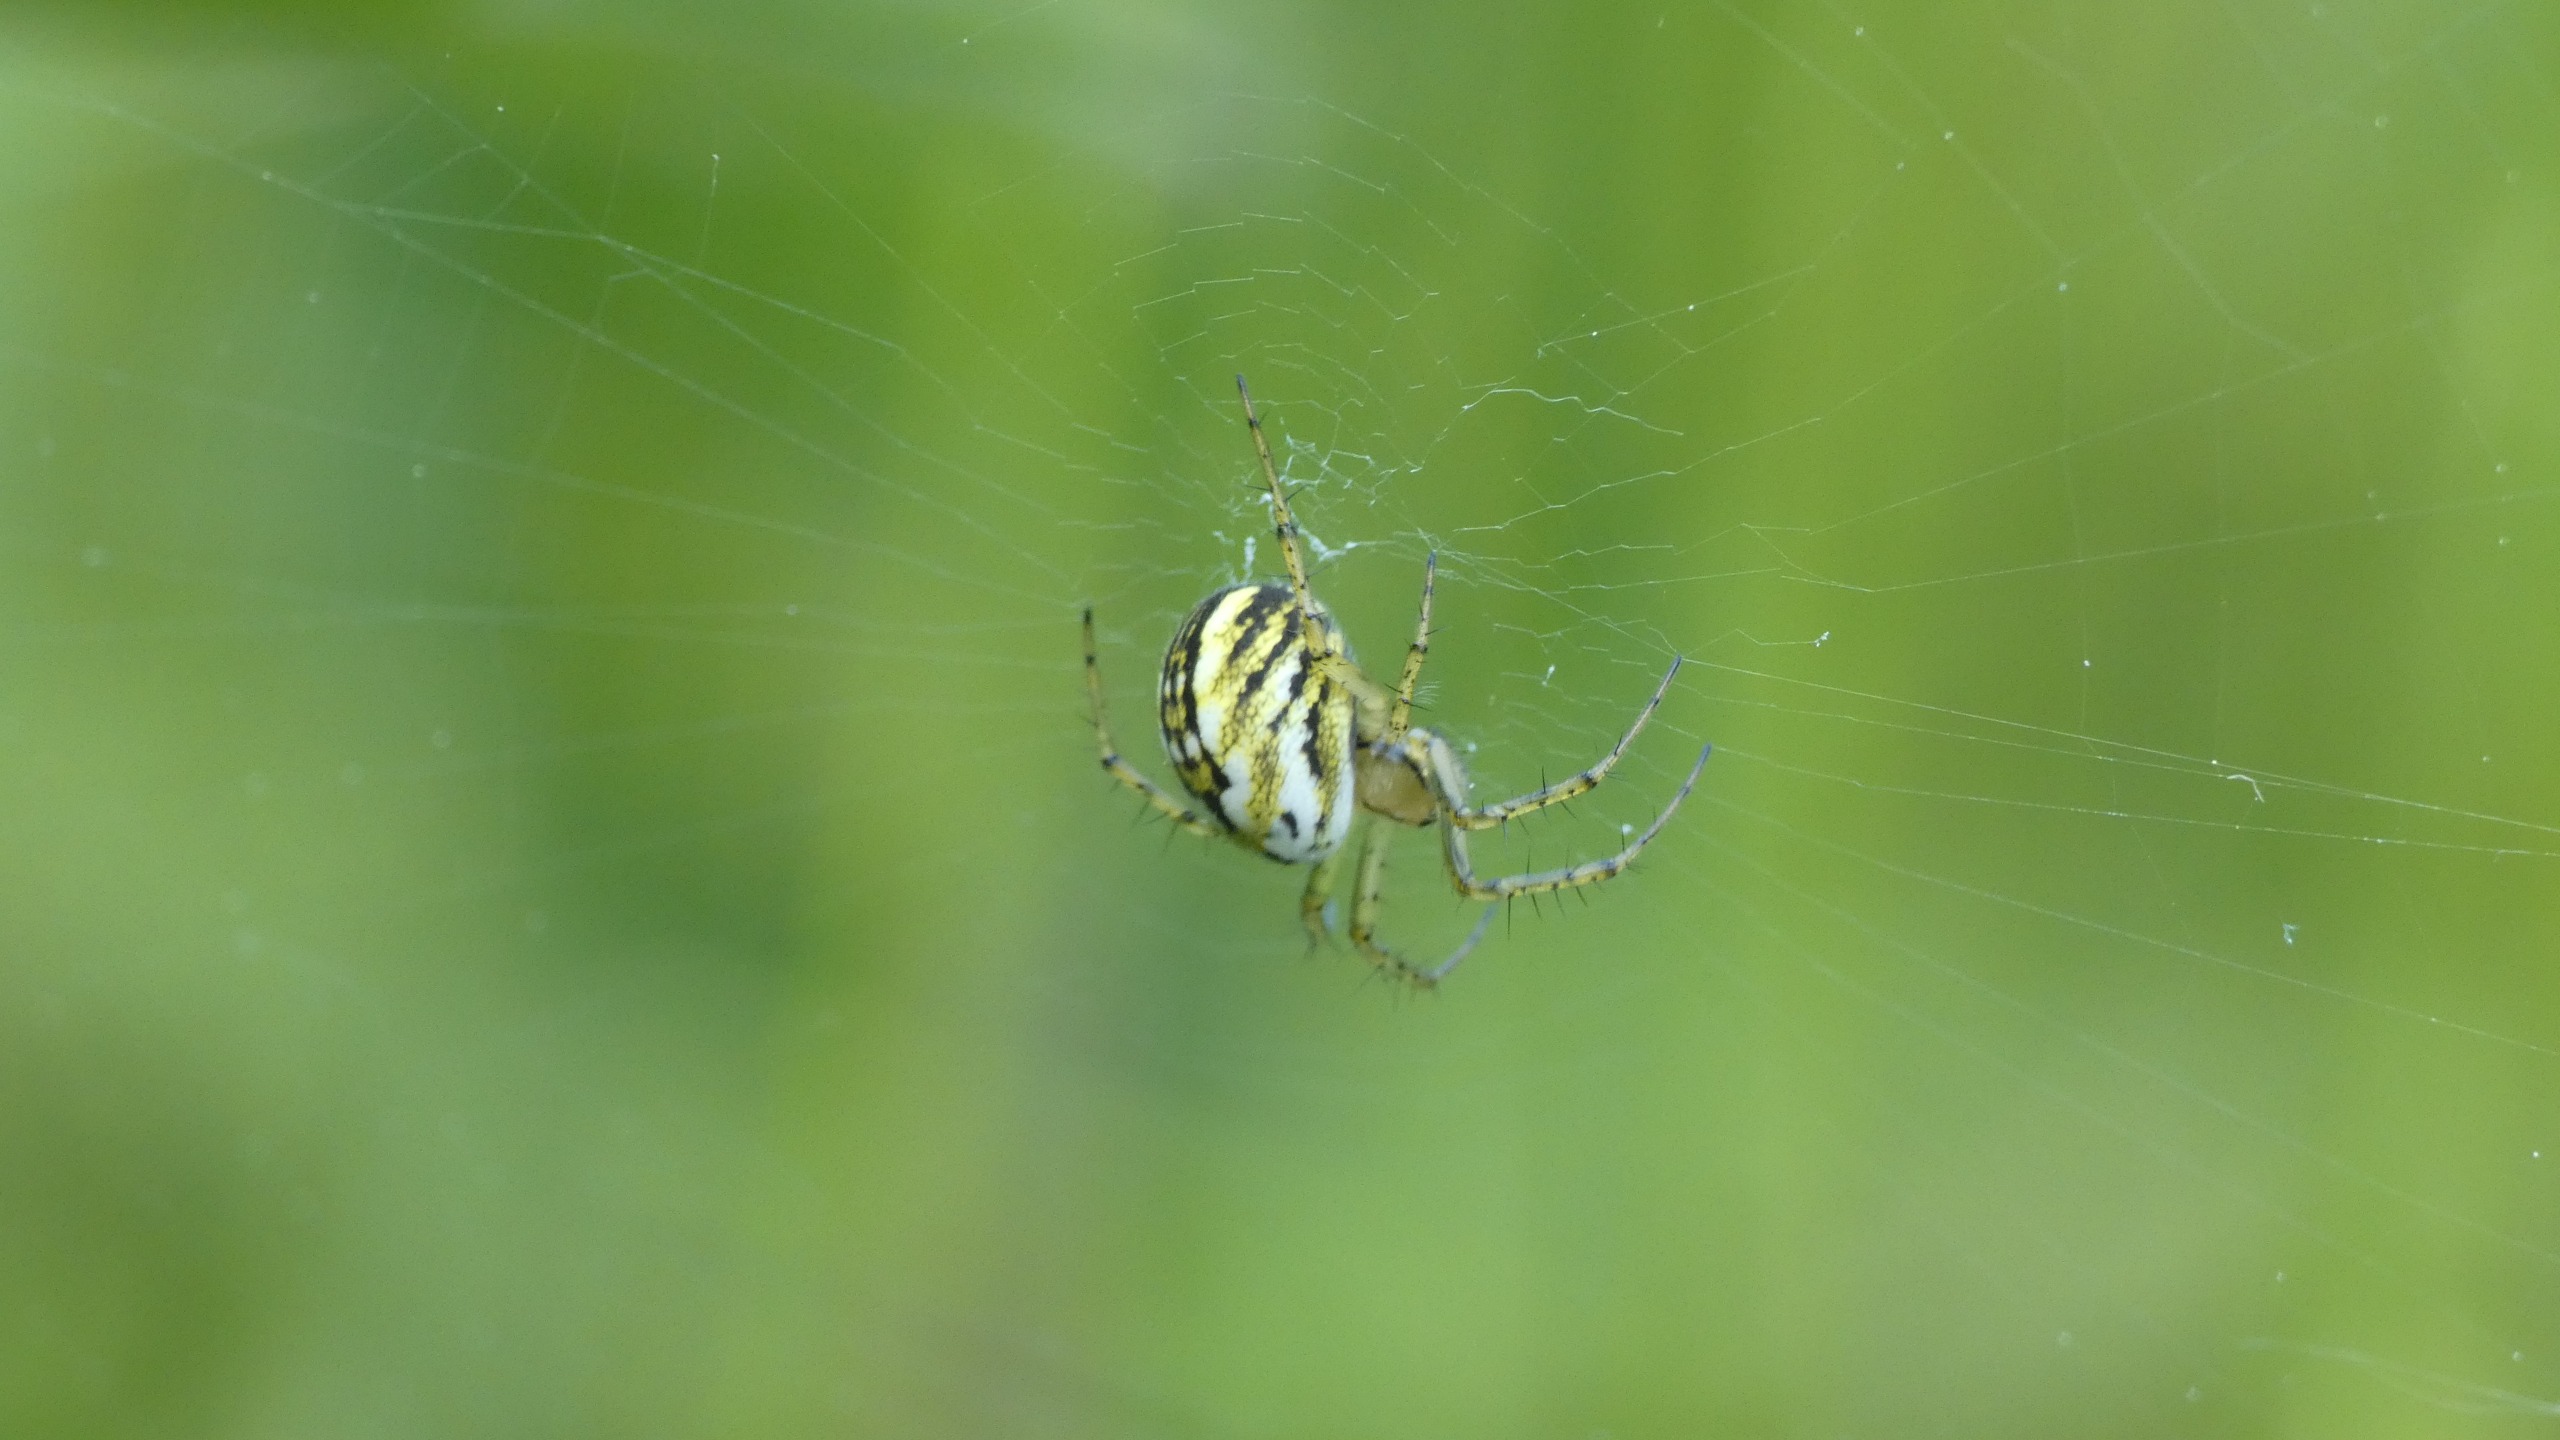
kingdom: Animalia
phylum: Arthropoda
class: Arachnida
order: Araneae
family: Araneidae
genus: Mangora
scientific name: Mangora acalypha
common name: Sortstribet hedehjulspinder
